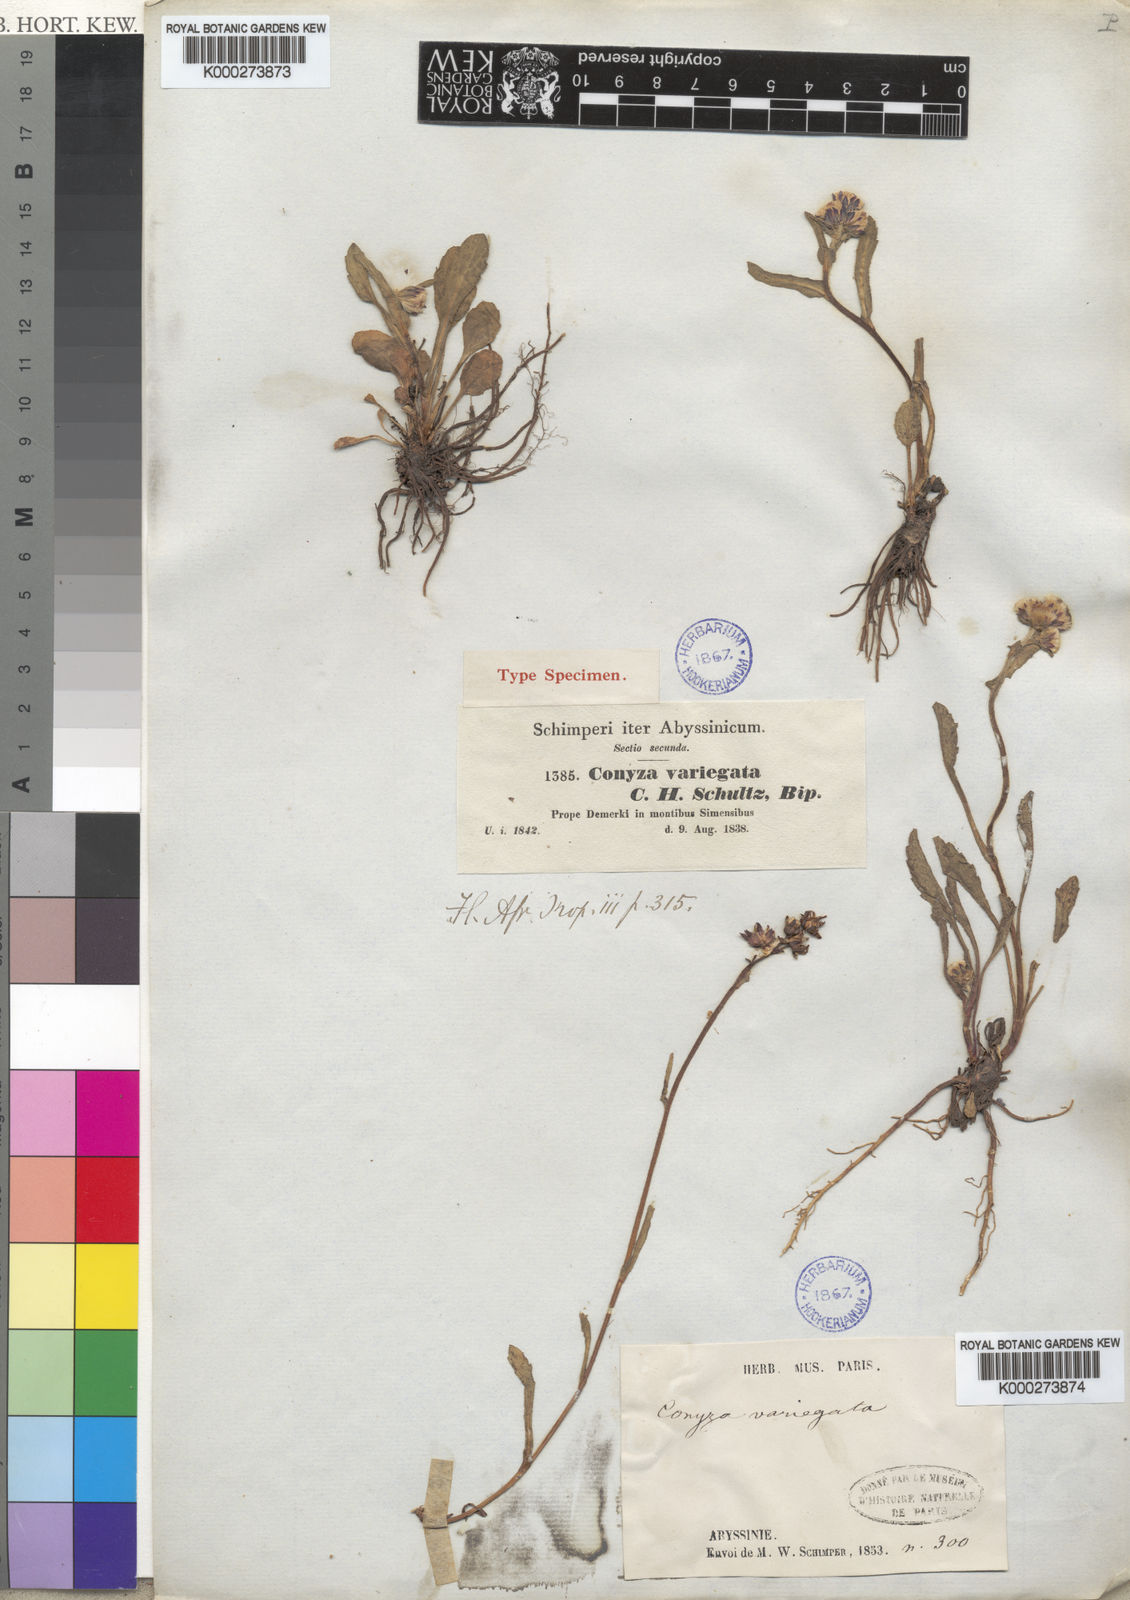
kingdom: Plantae
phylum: Tracheophyta
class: Magnoliopsida
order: Asterales
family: Asteraceae
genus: Conyza
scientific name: Conyza variegata
